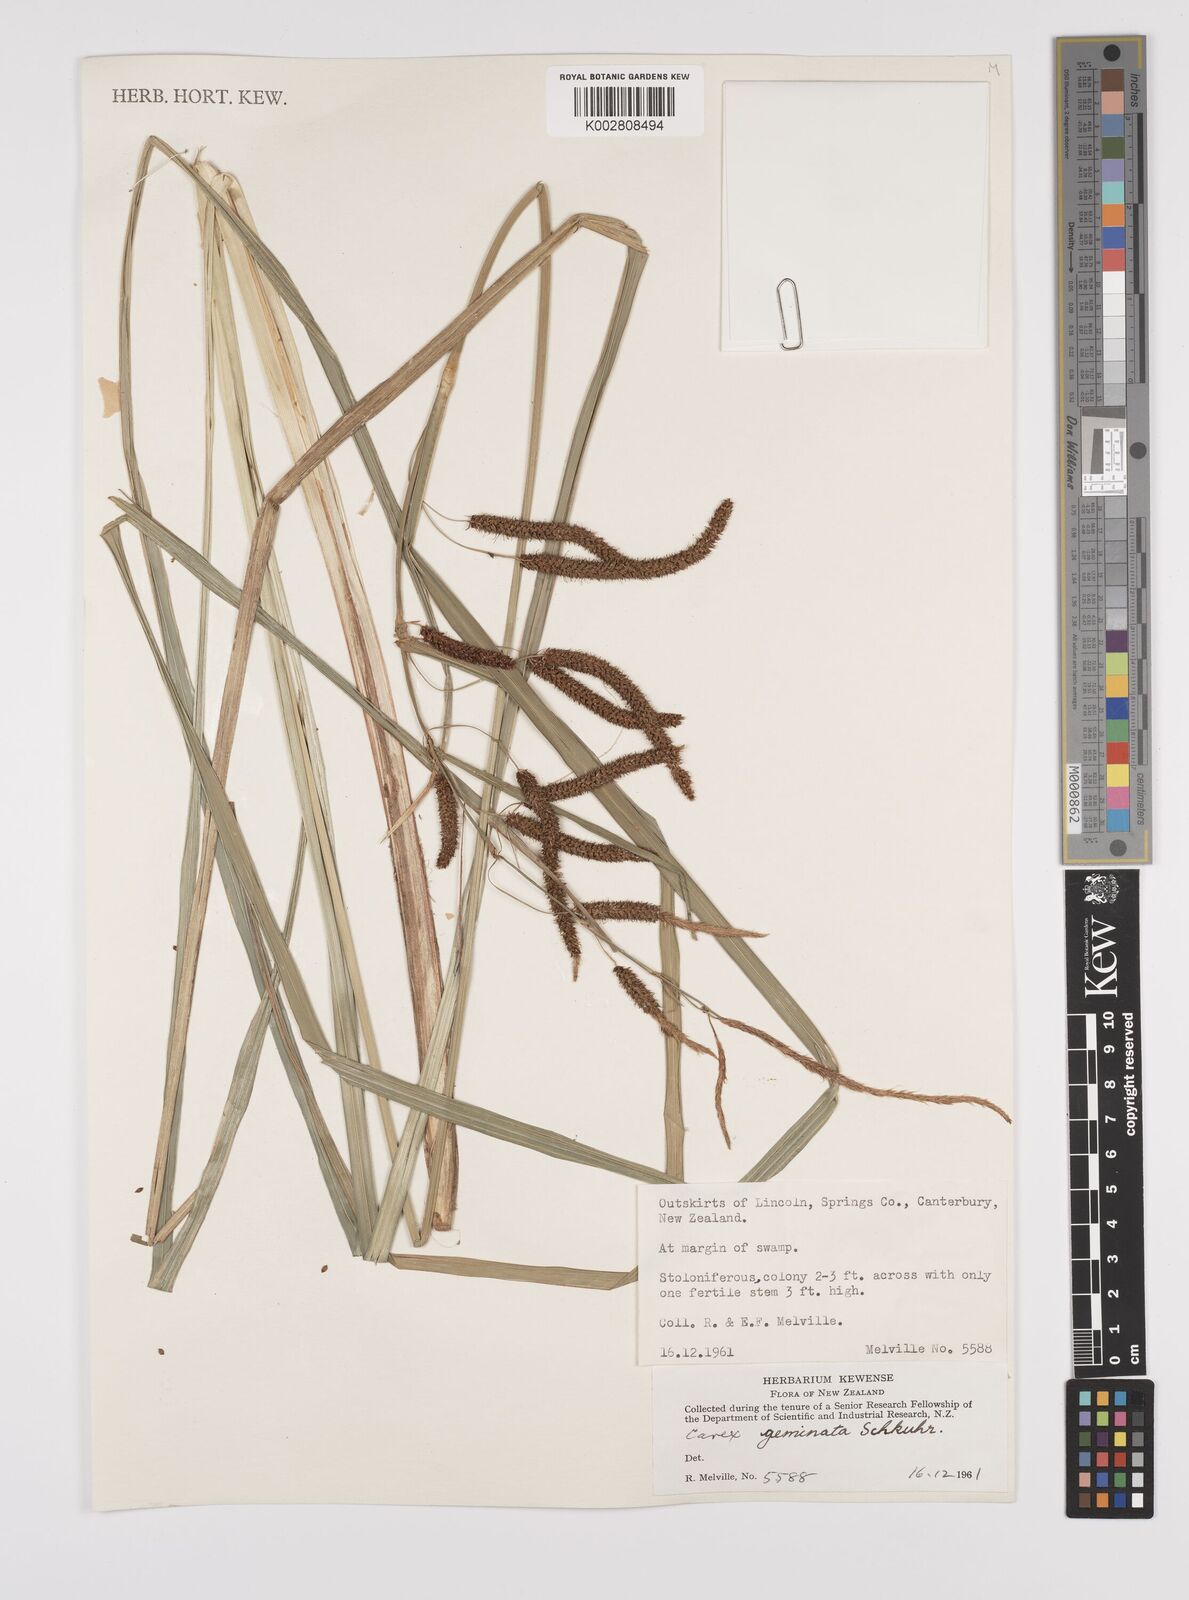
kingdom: Plantae
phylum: Tracheophyta
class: Liliopsida
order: Poales
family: Cyperaceae
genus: Carex
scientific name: Carex geminata
